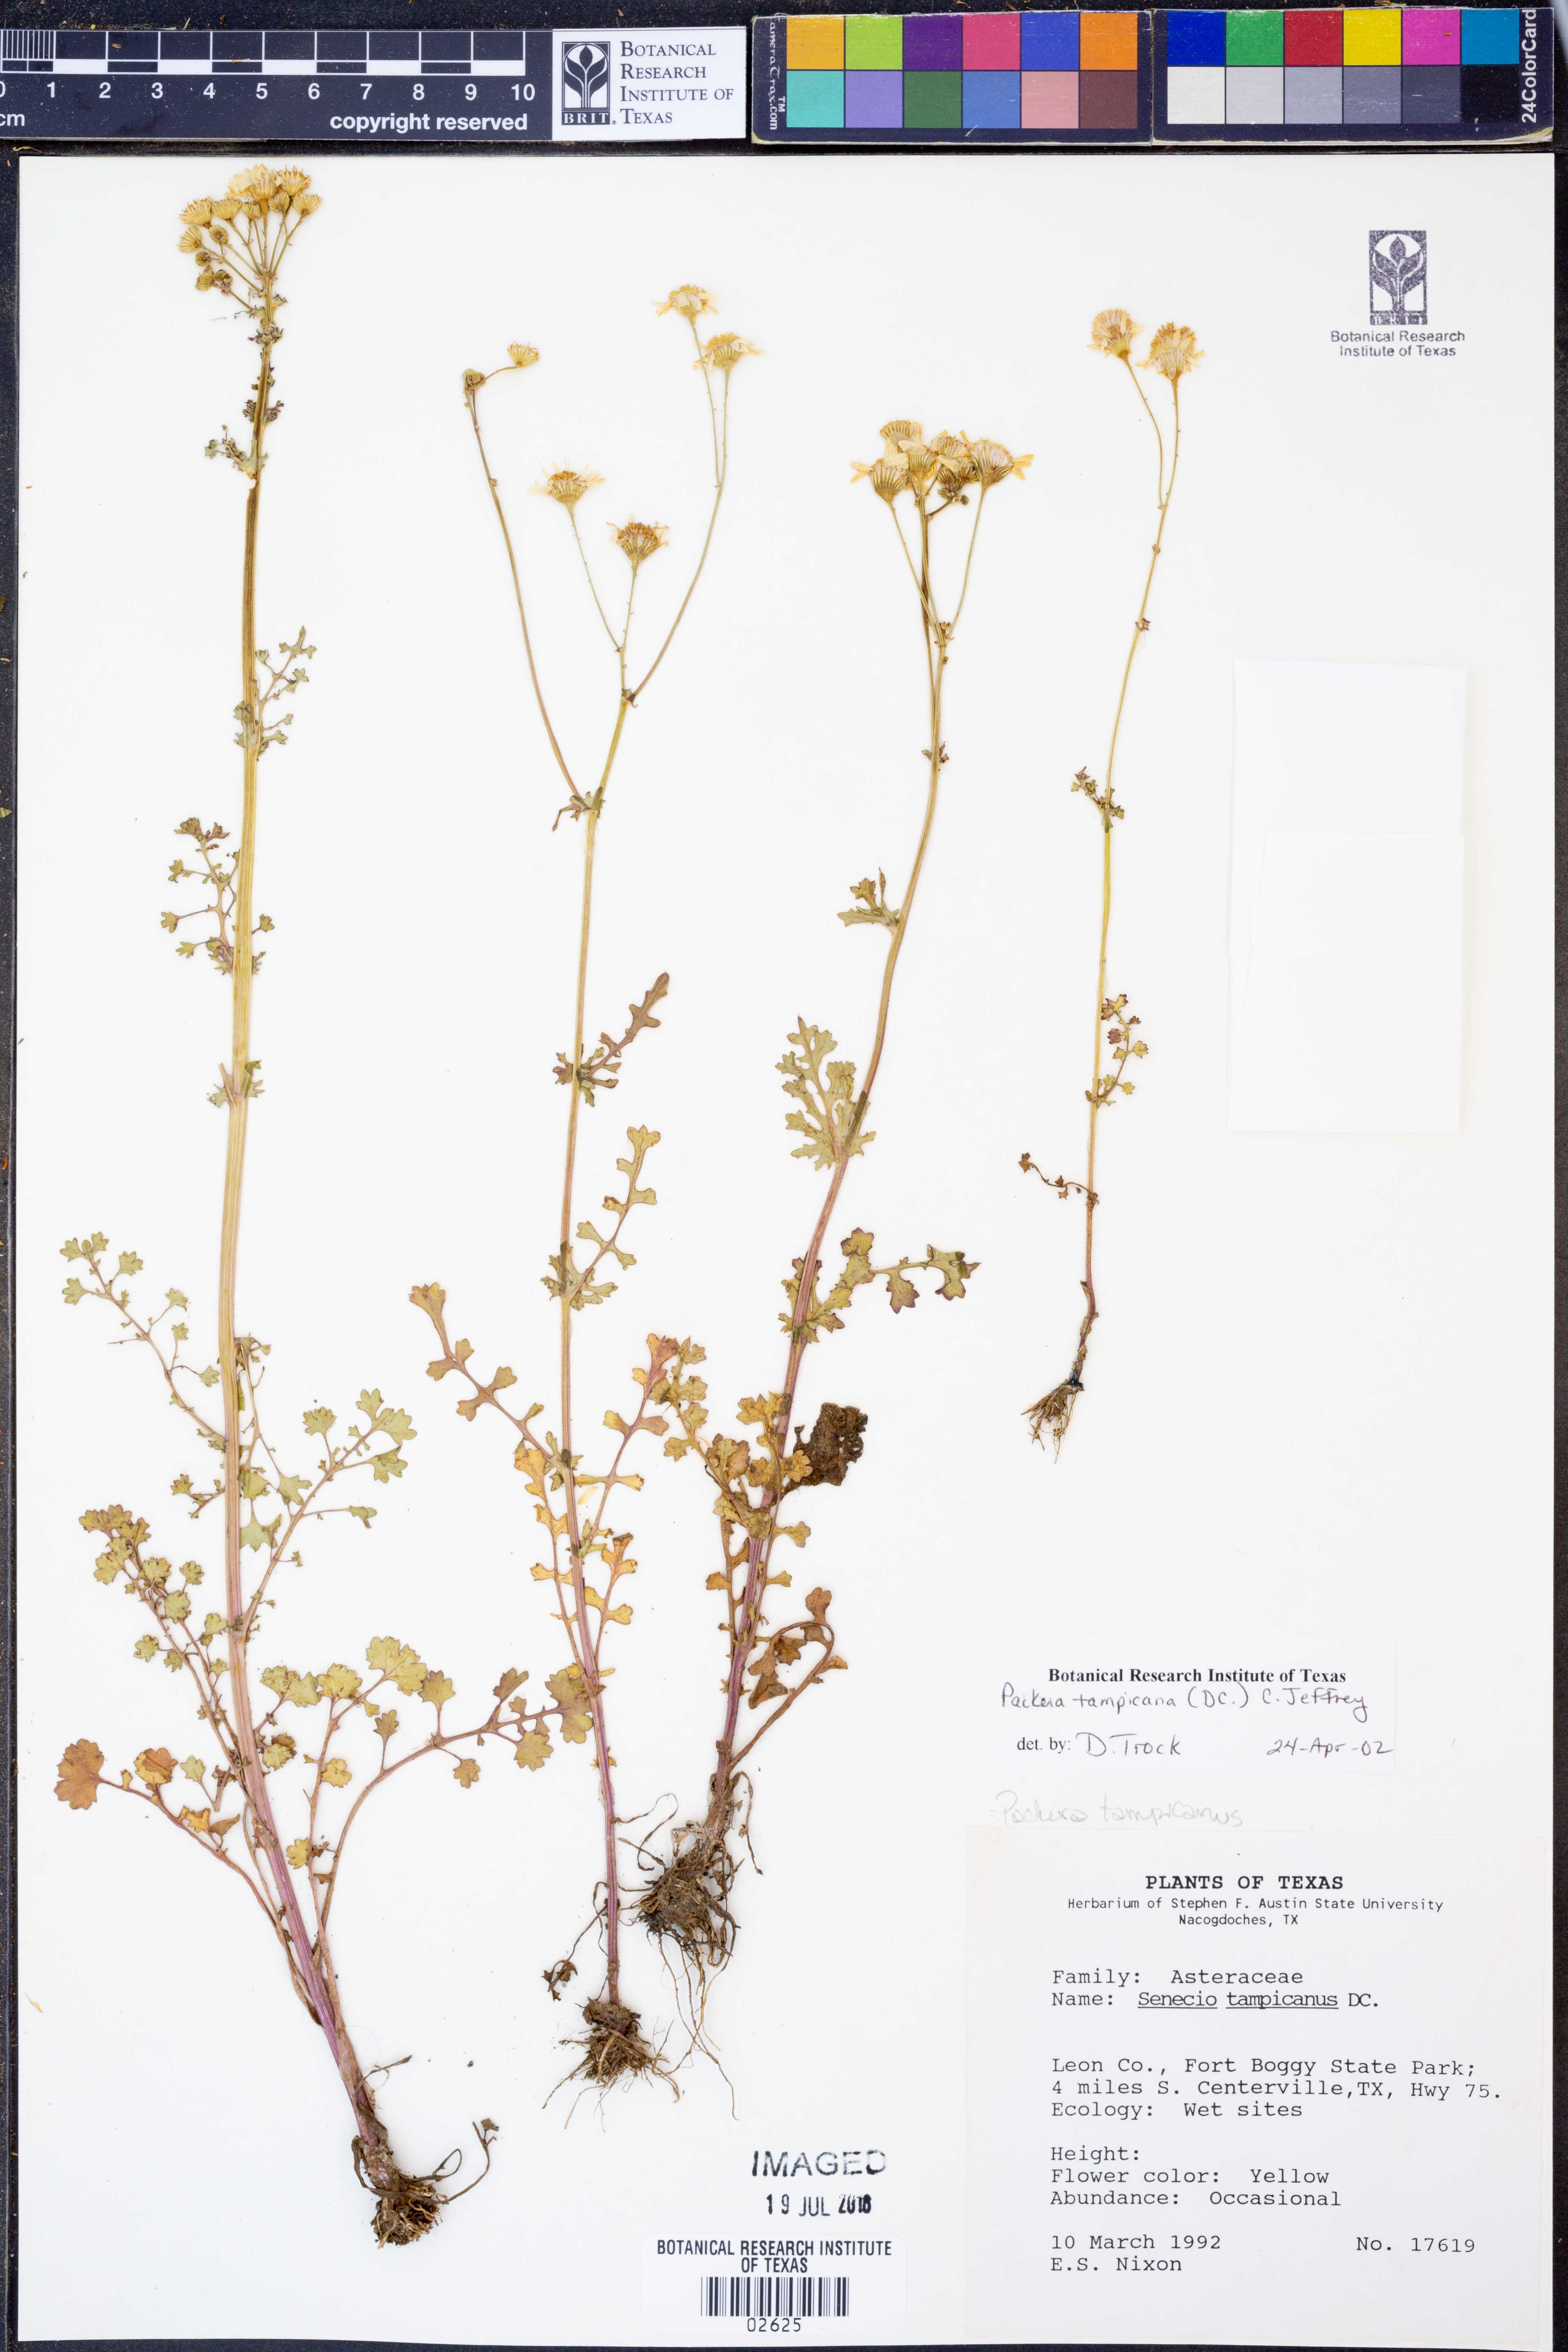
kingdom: Plantae
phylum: Tracheophyta
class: Magnoliopsida
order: Asterales
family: Asteraceae
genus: Packera
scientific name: Packera tampicana
